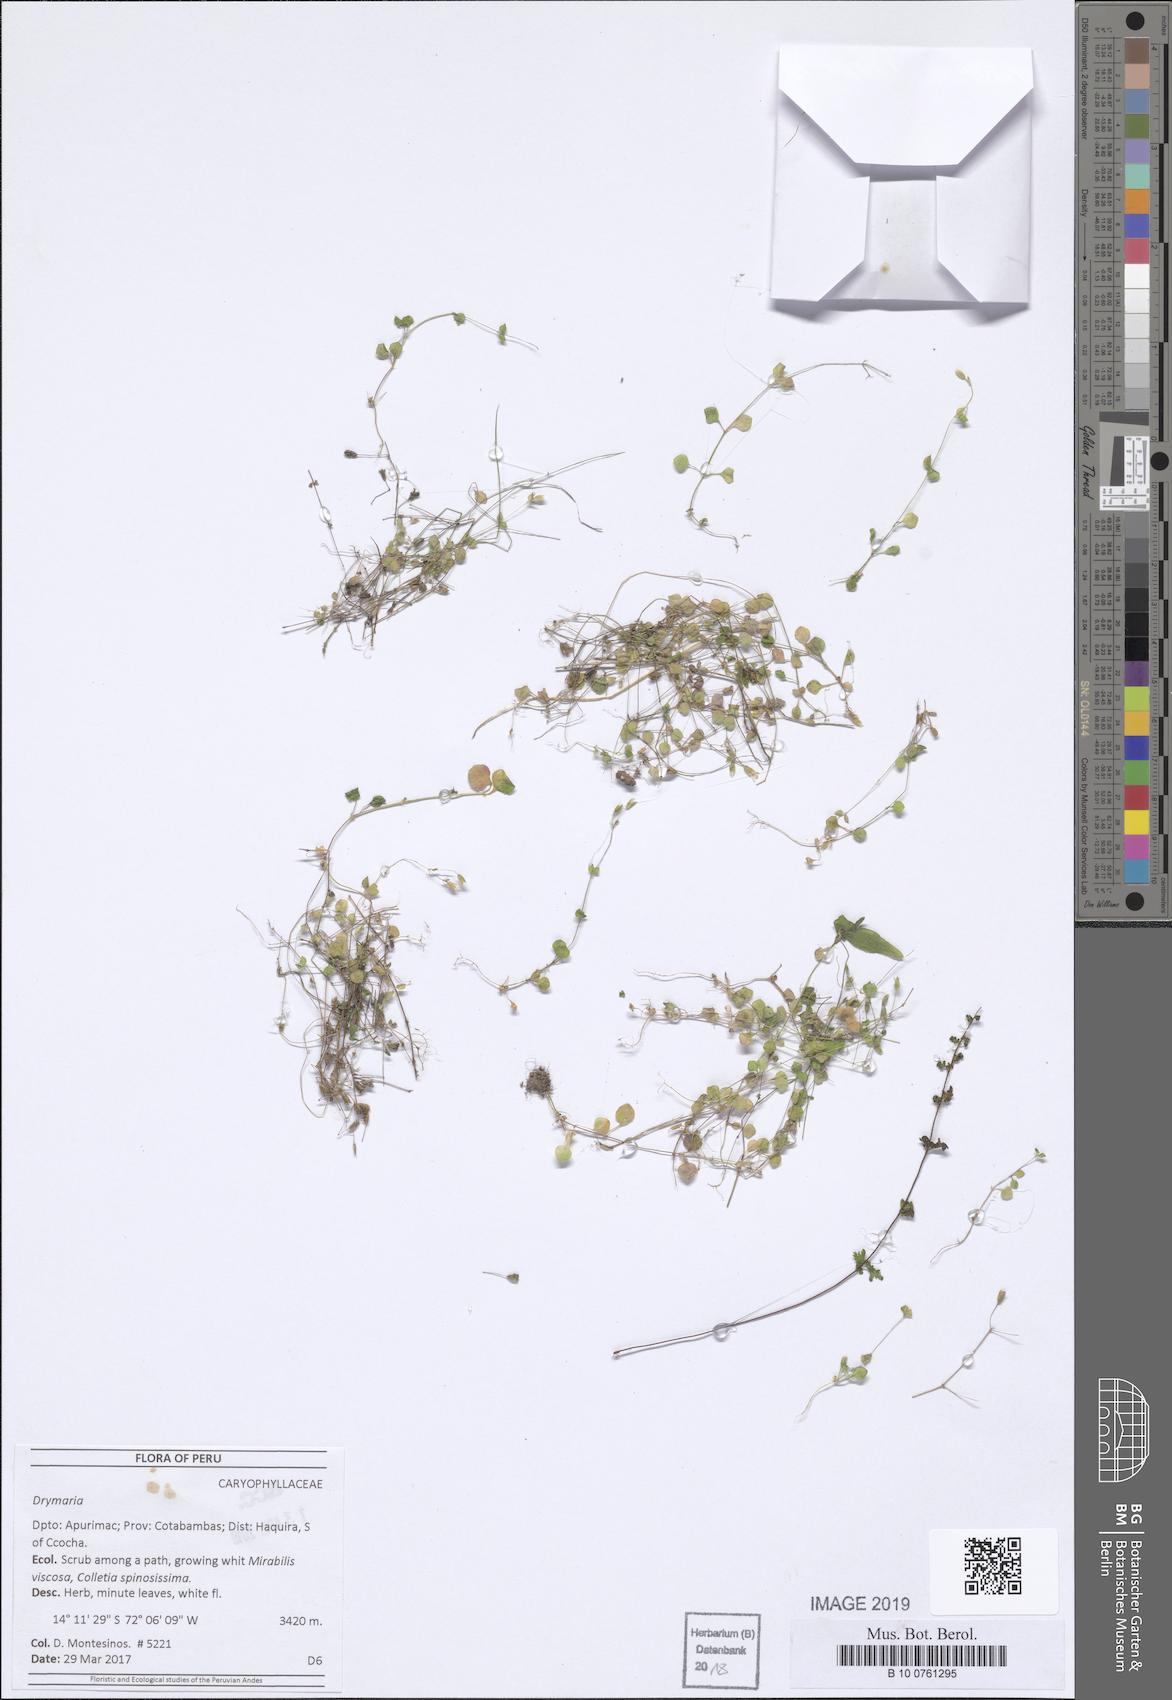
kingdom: Plantae
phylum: Tracheophyta
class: Magnoliopsida
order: Caryophyllales
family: Caryophyllaceae
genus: Drymaria
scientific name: Drymaria
